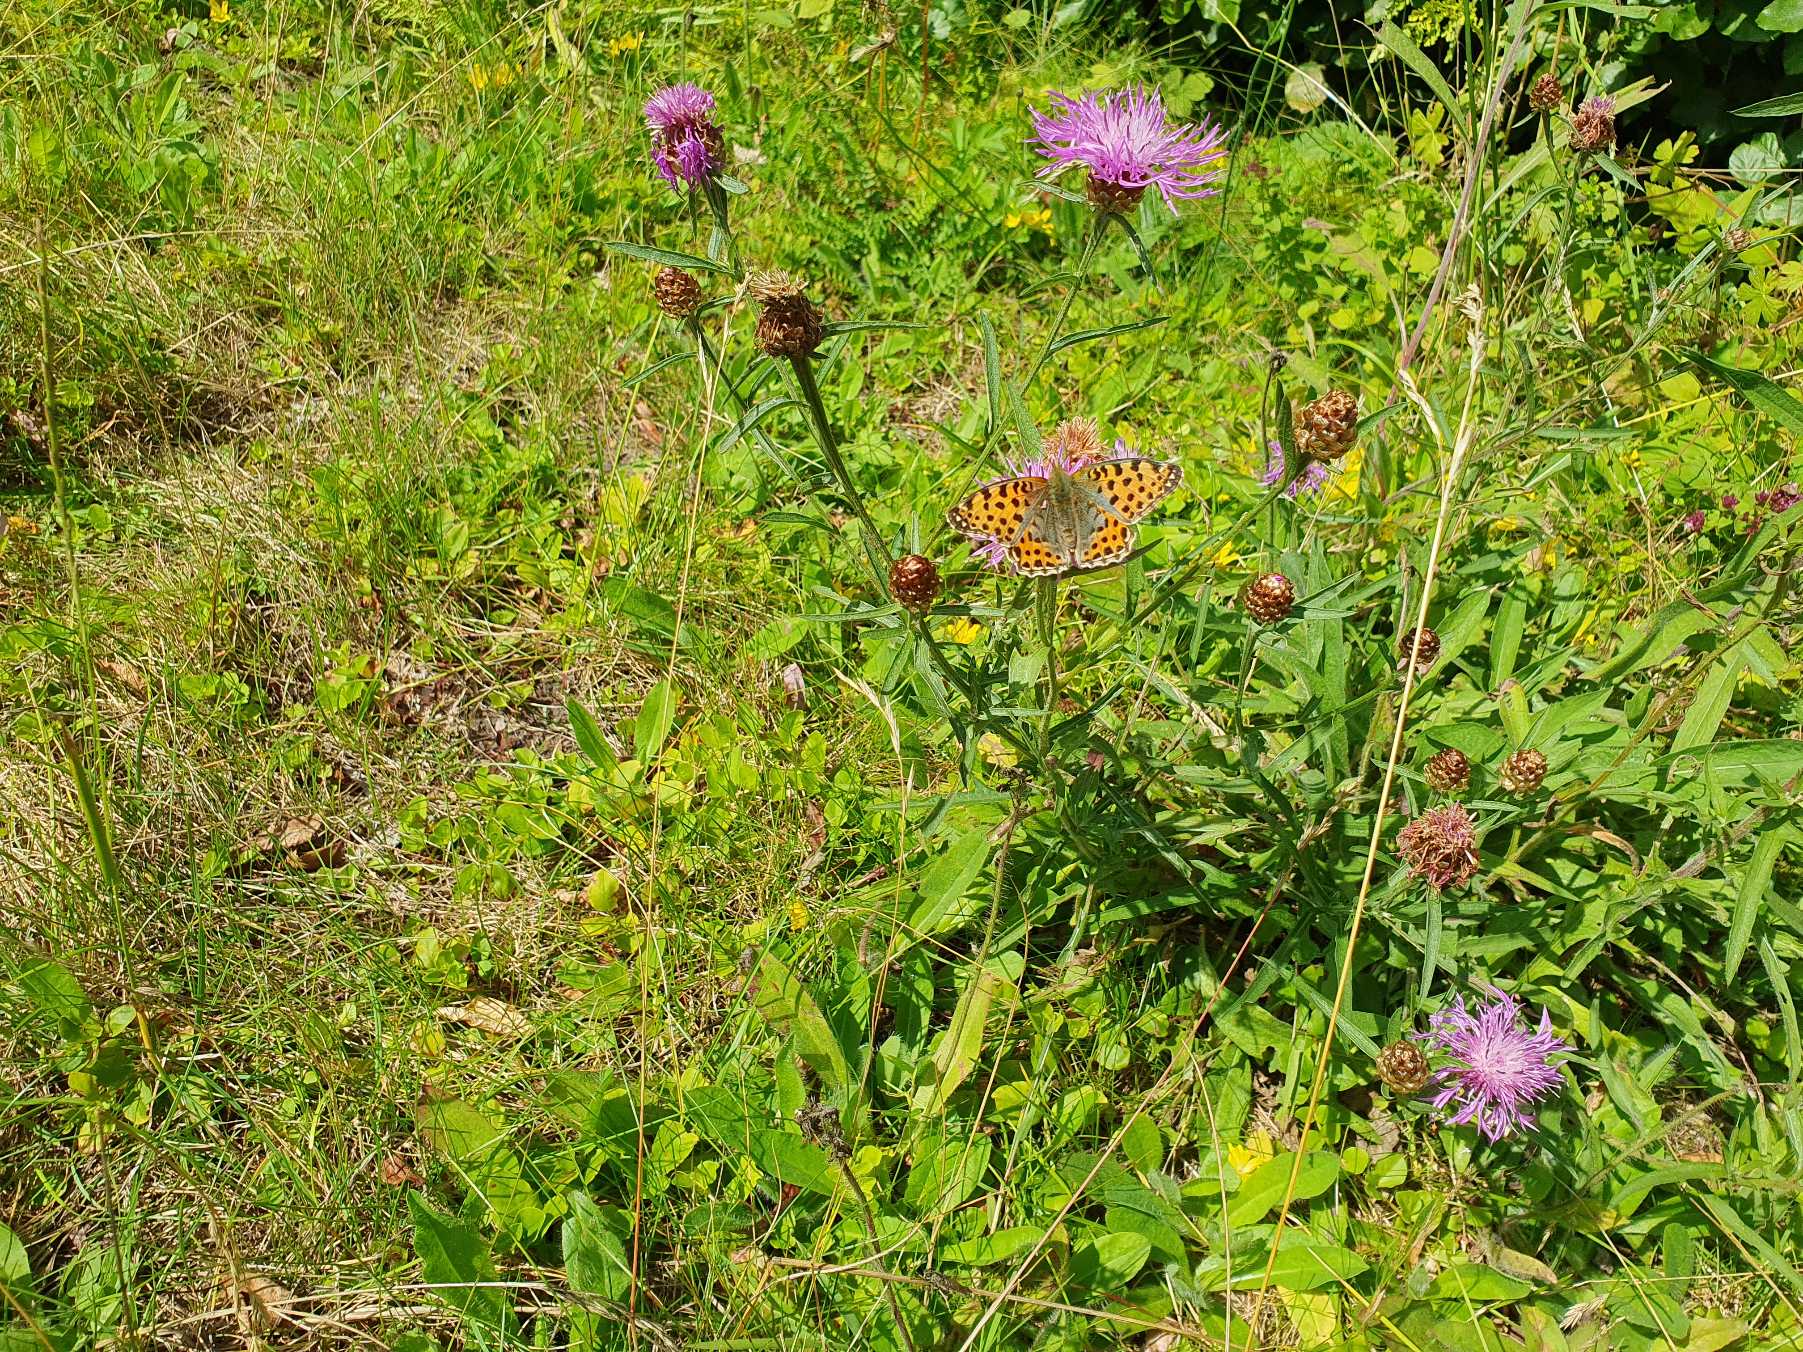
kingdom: Animalia
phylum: Arthropoda
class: Insecta
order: Lepidoptera
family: Nymphalidae
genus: Issoria
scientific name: Issoria lathonia
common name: Storplettet perlemorsommerfugl
